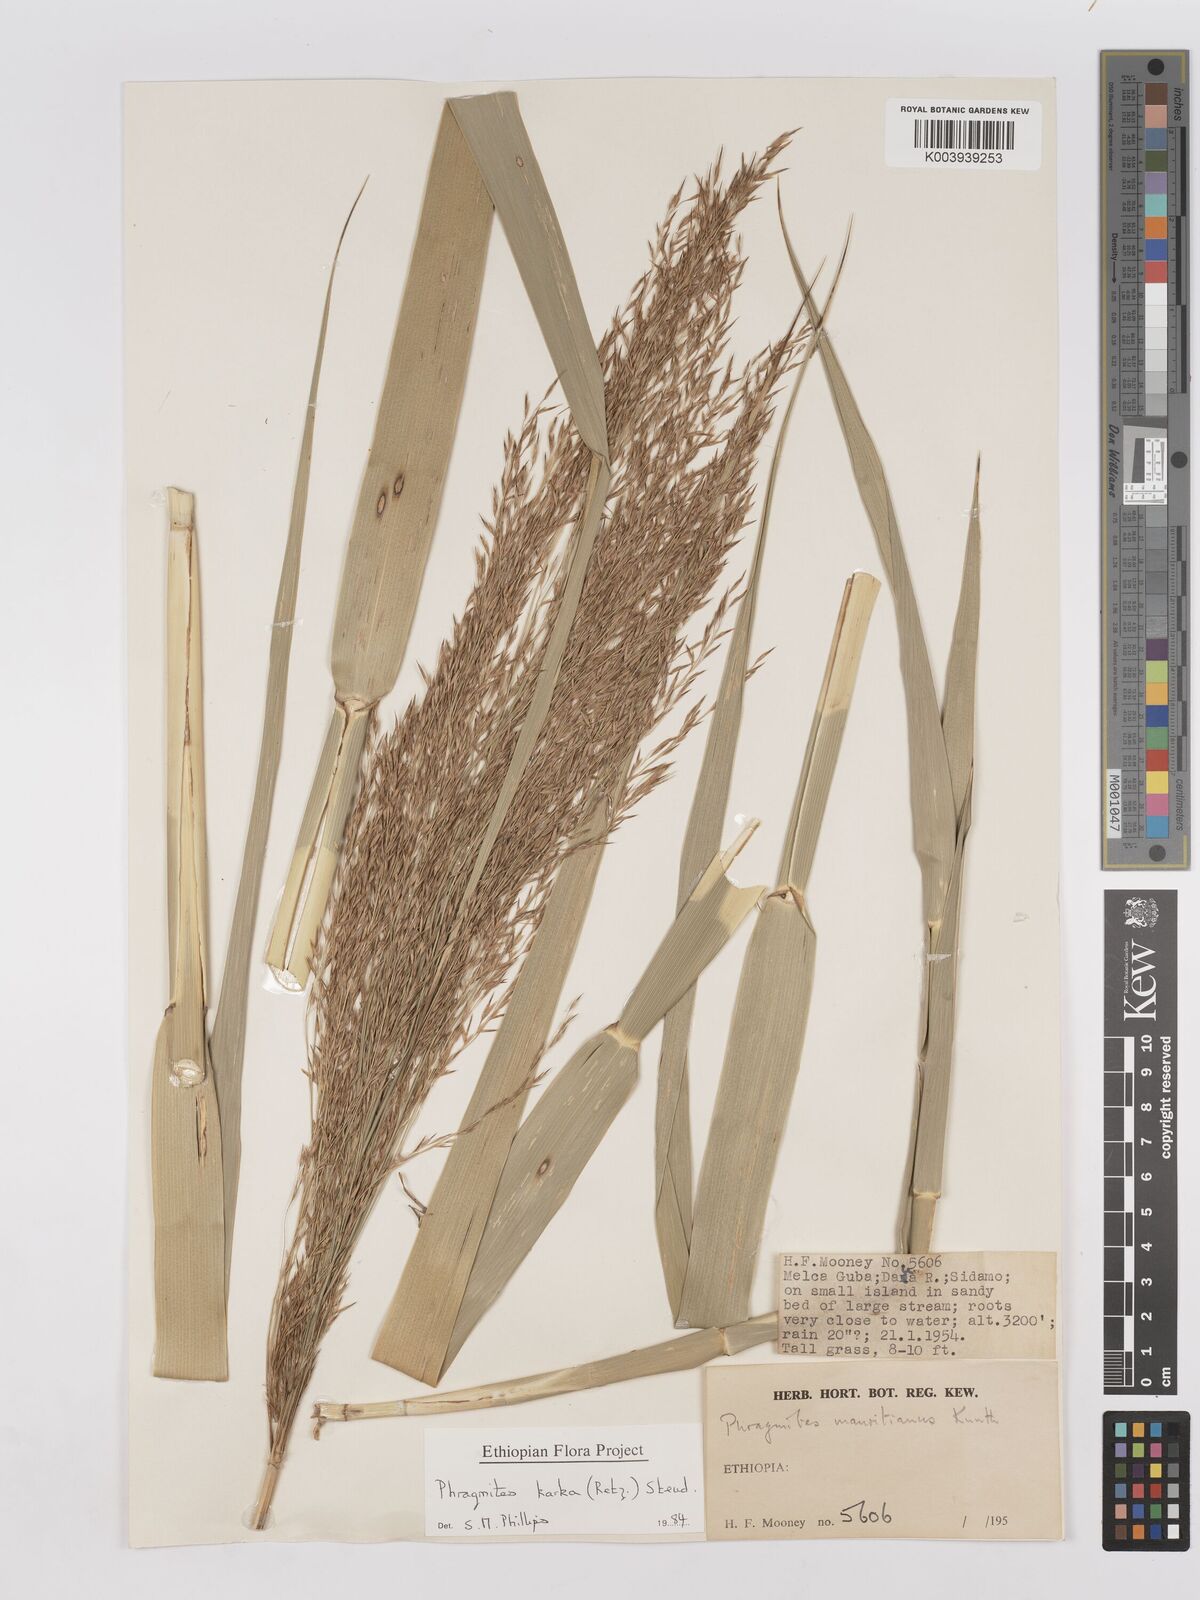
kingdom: Plantae
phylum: Tracheophyta
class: Liliopsida
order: Poales
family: Poaceae
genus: Phragmites
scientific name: Phragmites karka
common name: Tropical reed
